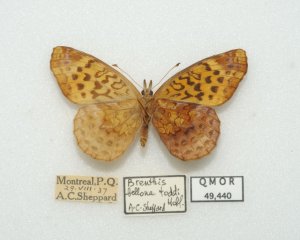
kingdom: Animalia
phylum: Arthropoda
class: Insecta
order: Lepidoptera
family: Nymphalidae
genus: Clossiana
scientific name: Clossiana toddi
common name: Meadow Fritillary
